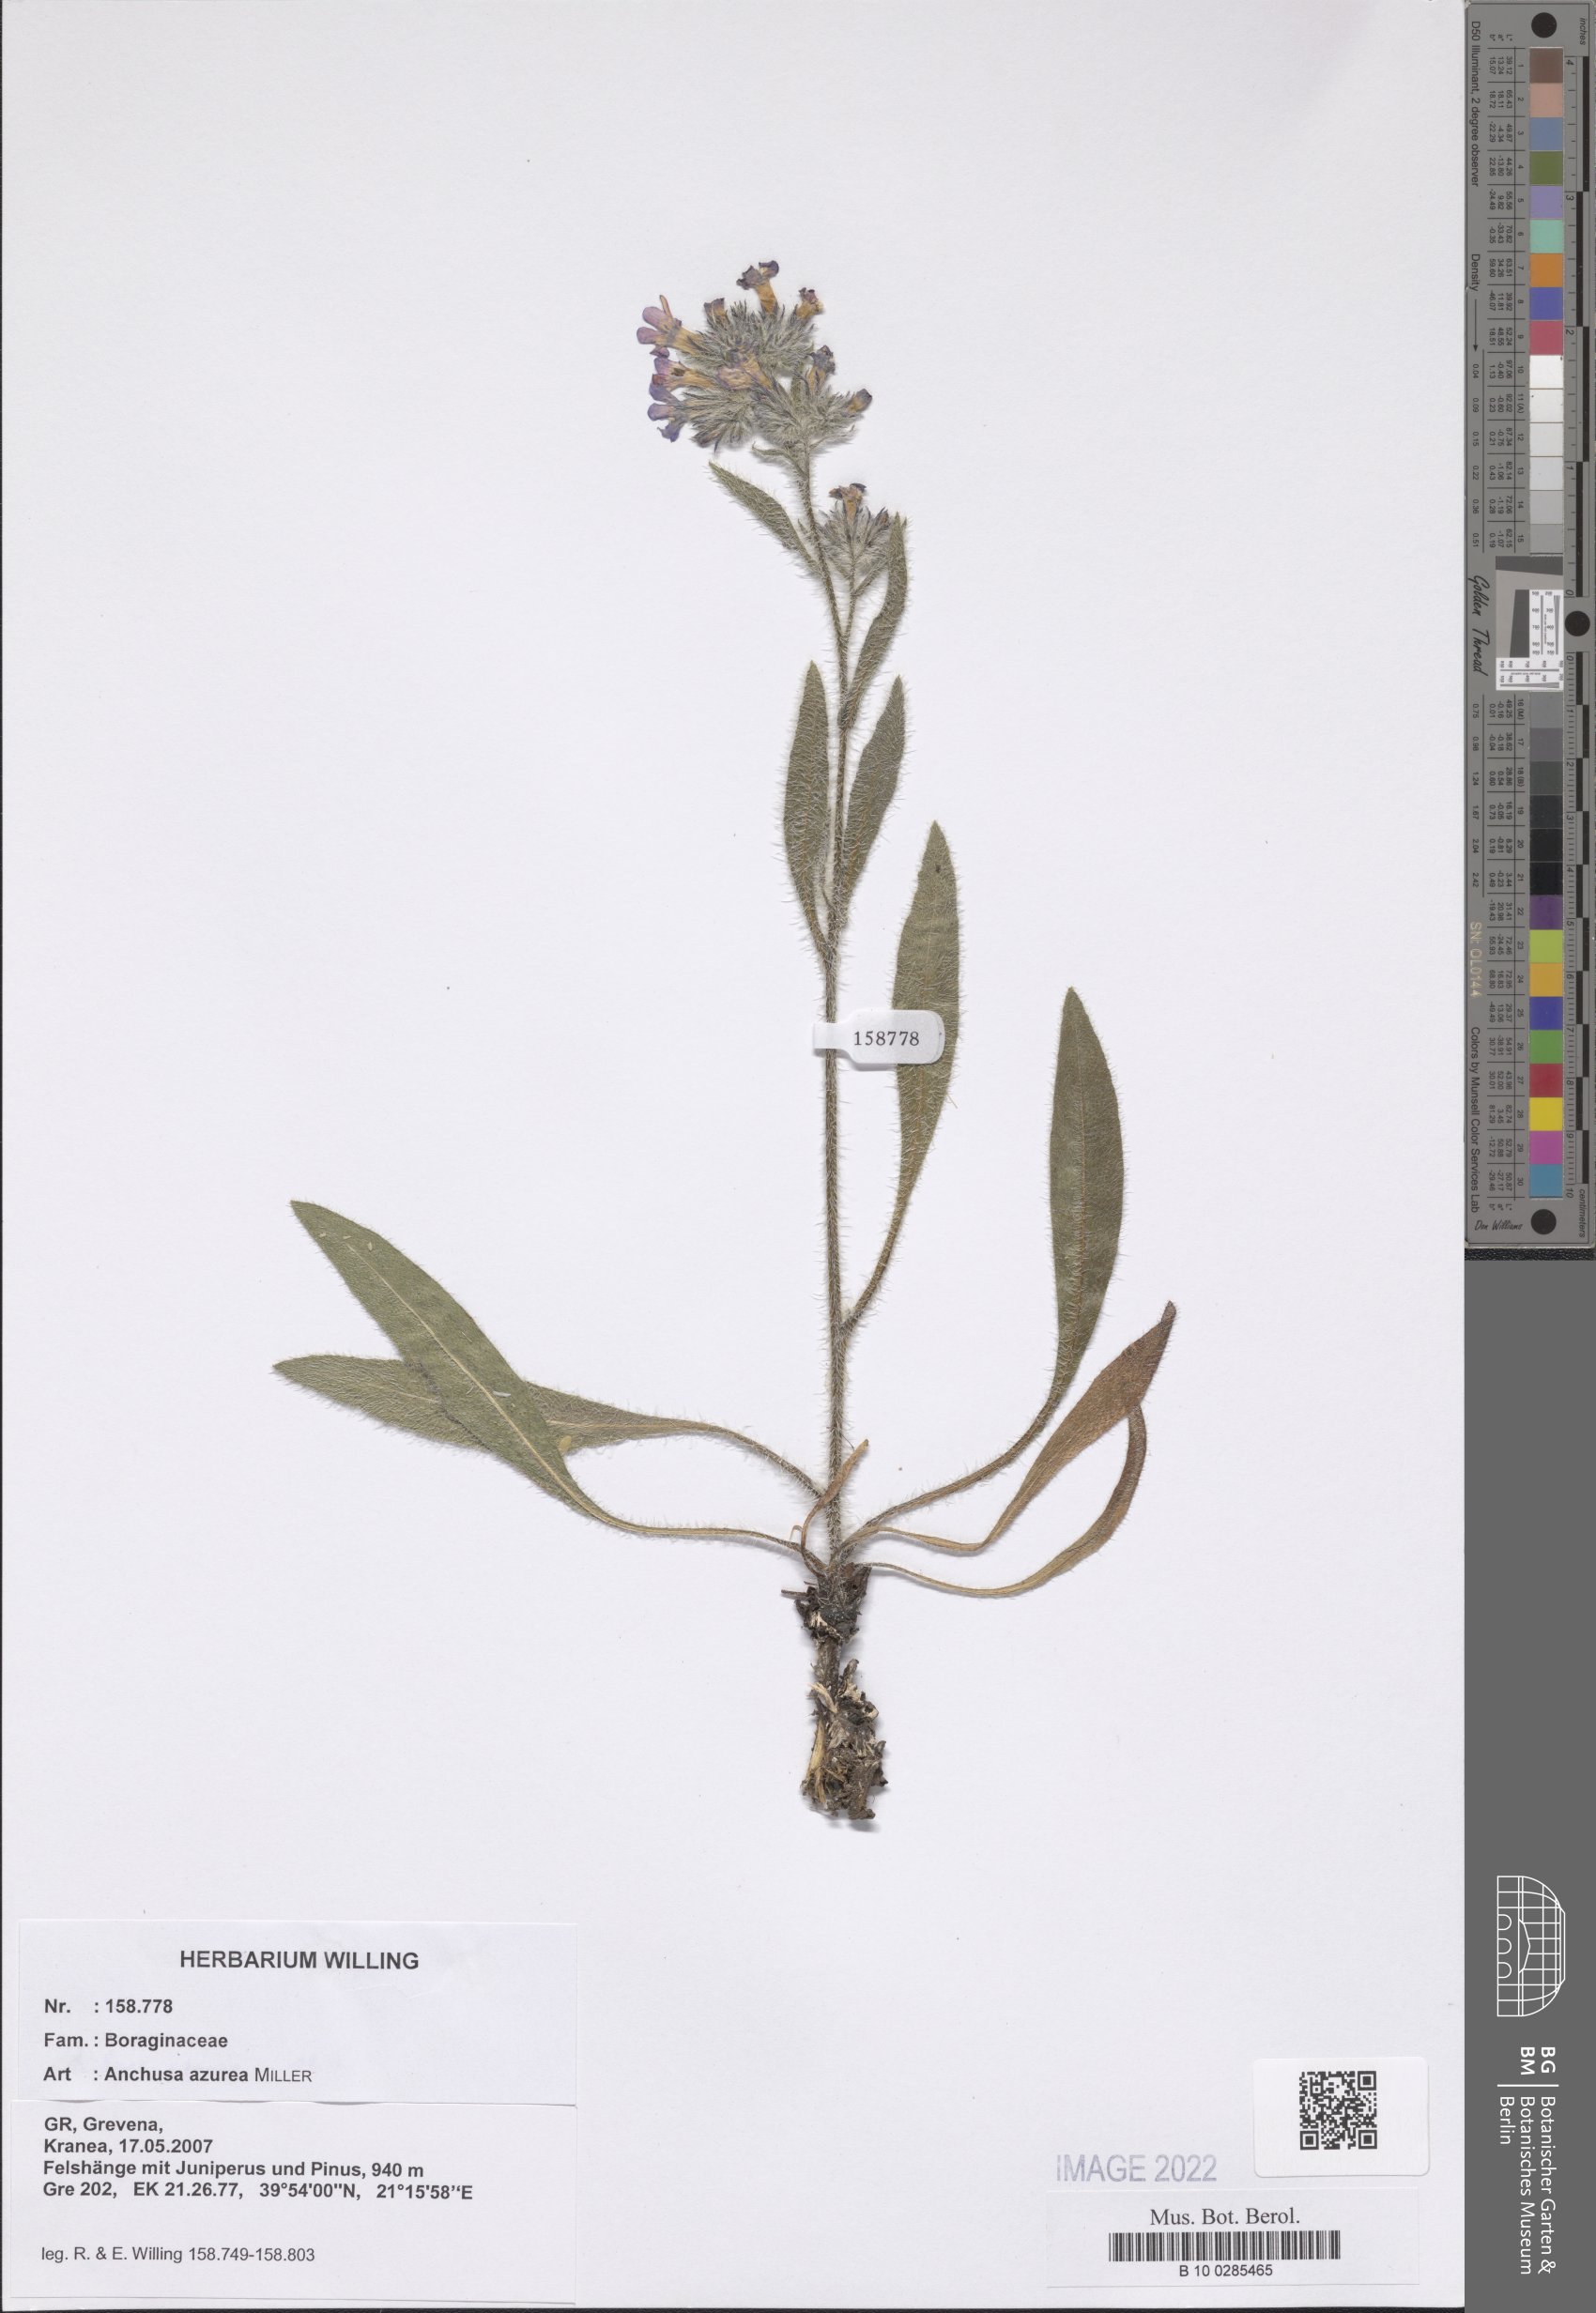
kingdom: Plantae
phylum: Tracheophyta
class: Magnoliopsida
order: Boraginales
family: Boraginaceae
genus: Anchusa
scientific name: Anchusa azurea
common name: Garden anchusa
